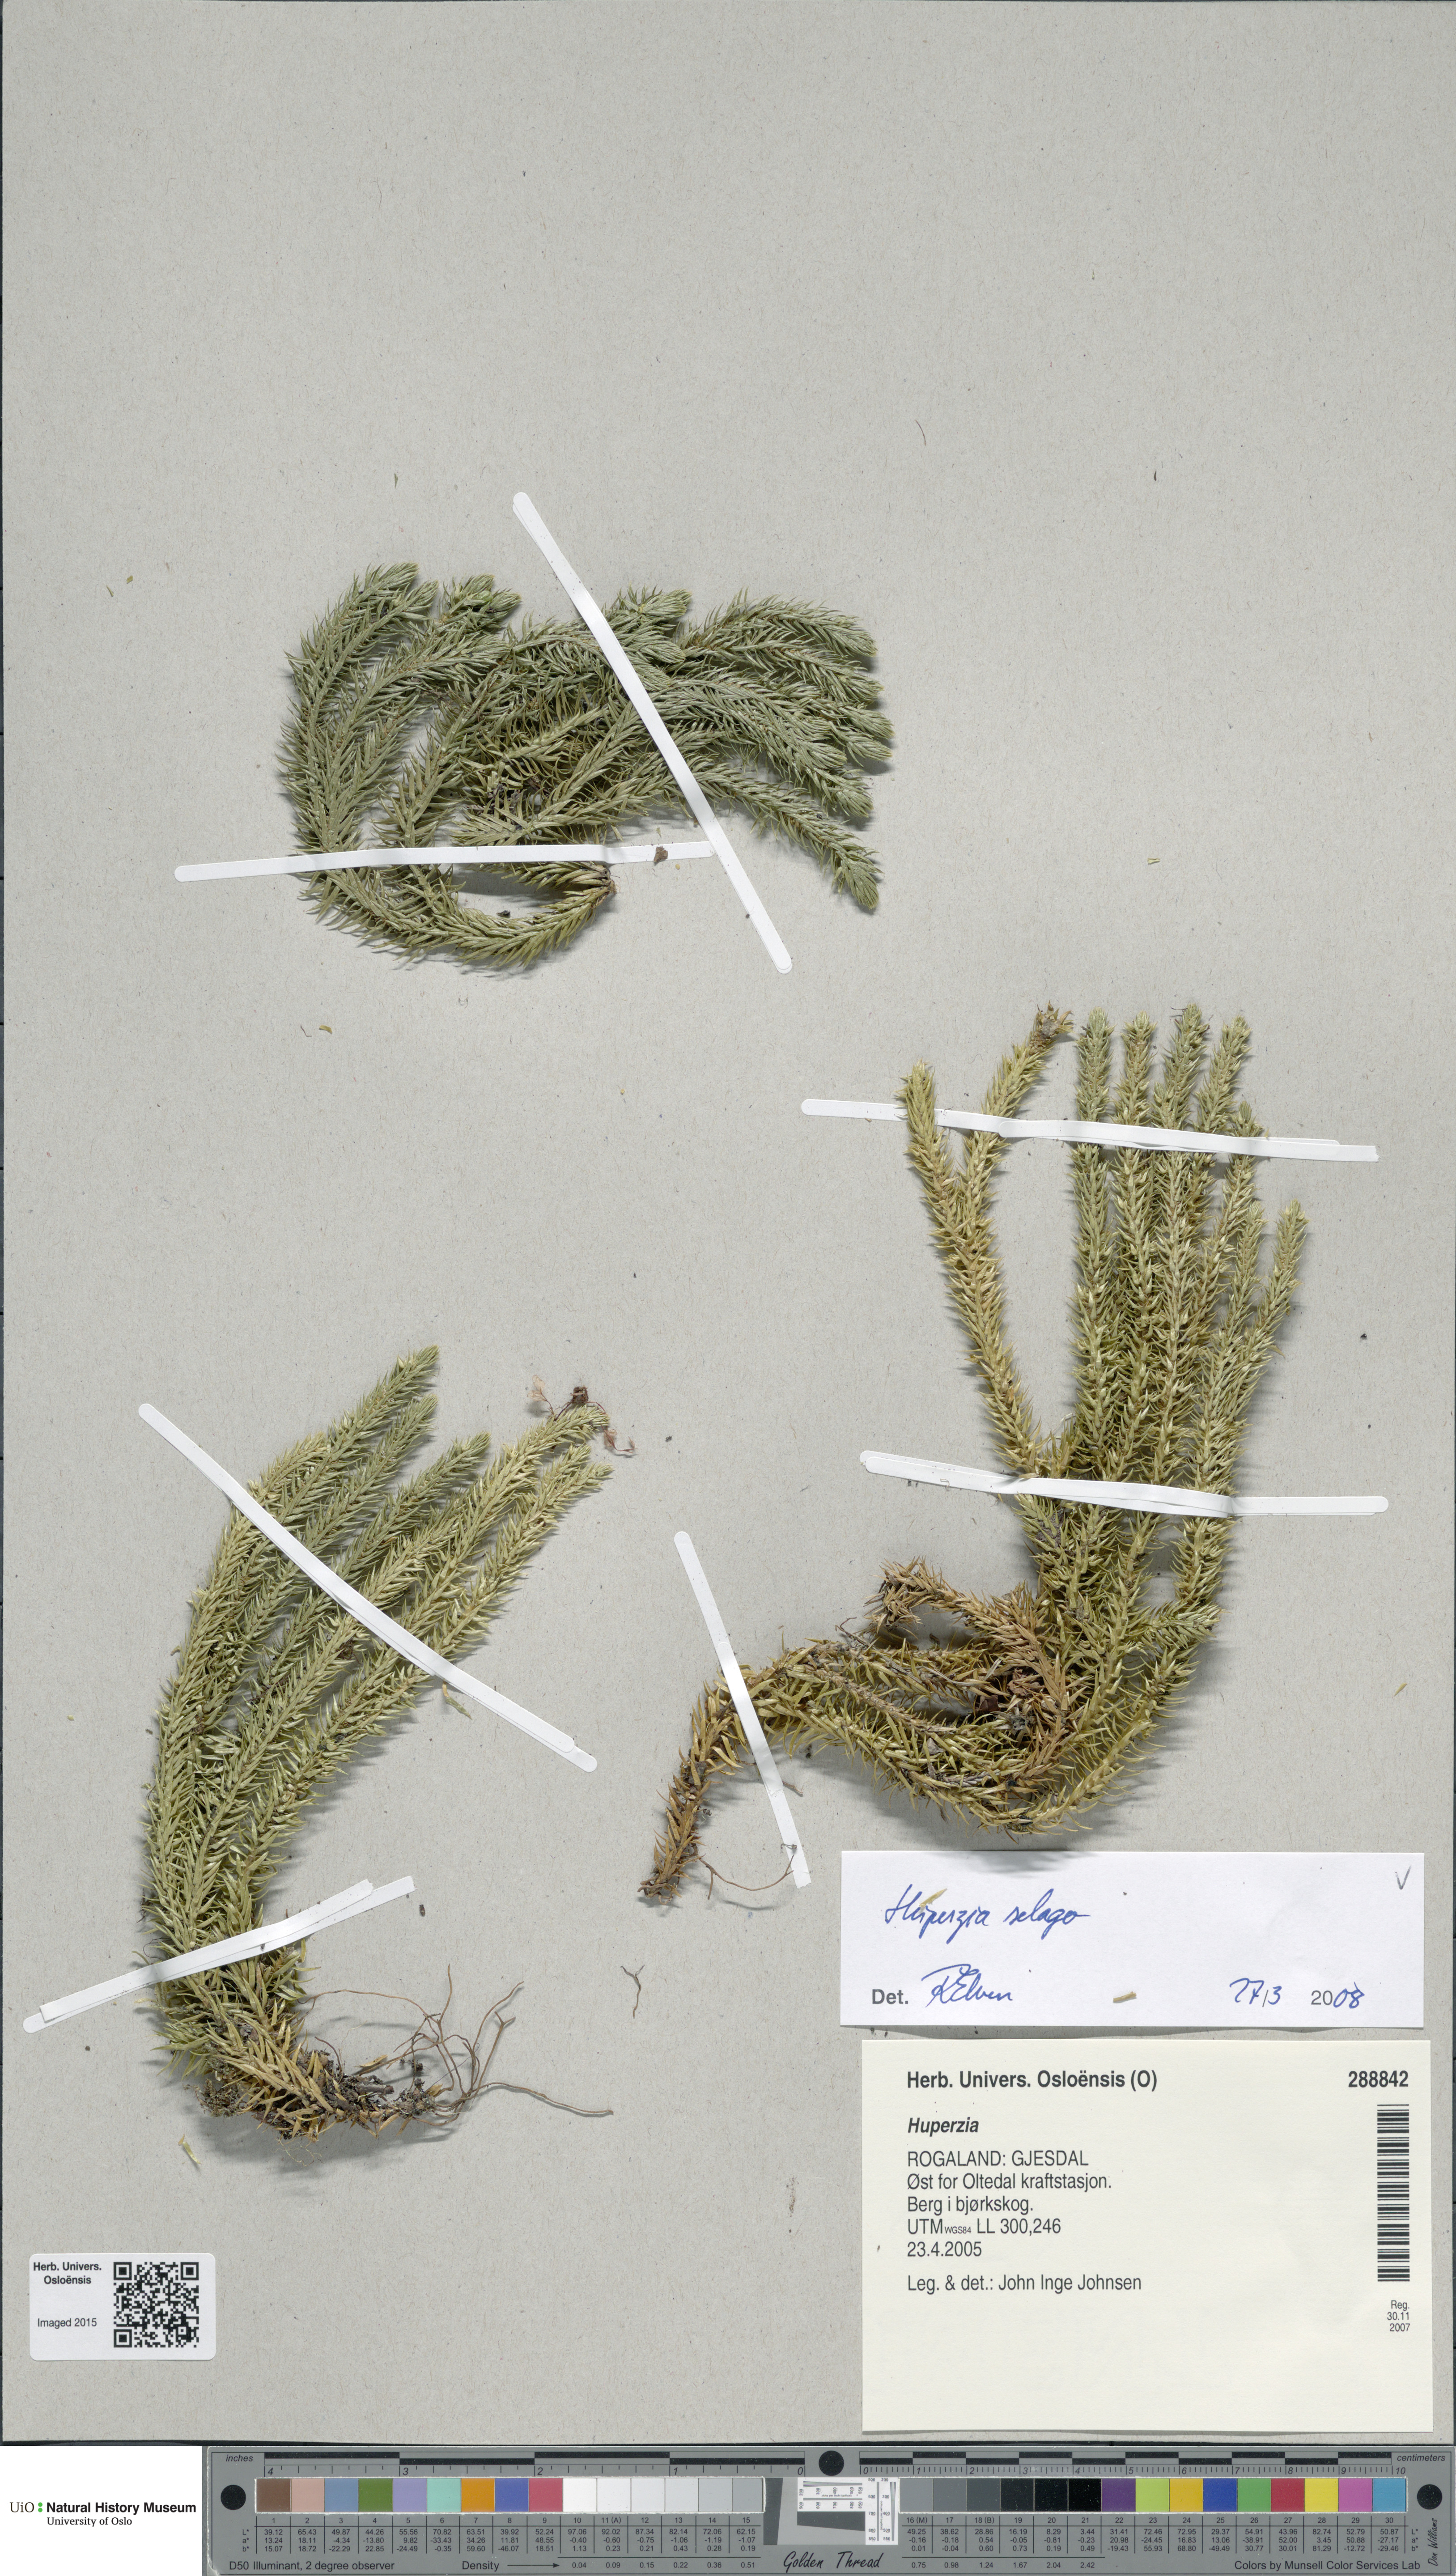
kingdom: Plantae
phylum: Tracheophyta
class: Lycopodiopsida
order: Lycopodiales
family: Lycopodiaceae
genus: Huperzia
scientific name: Huperzia selago
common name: Northern firmoss
